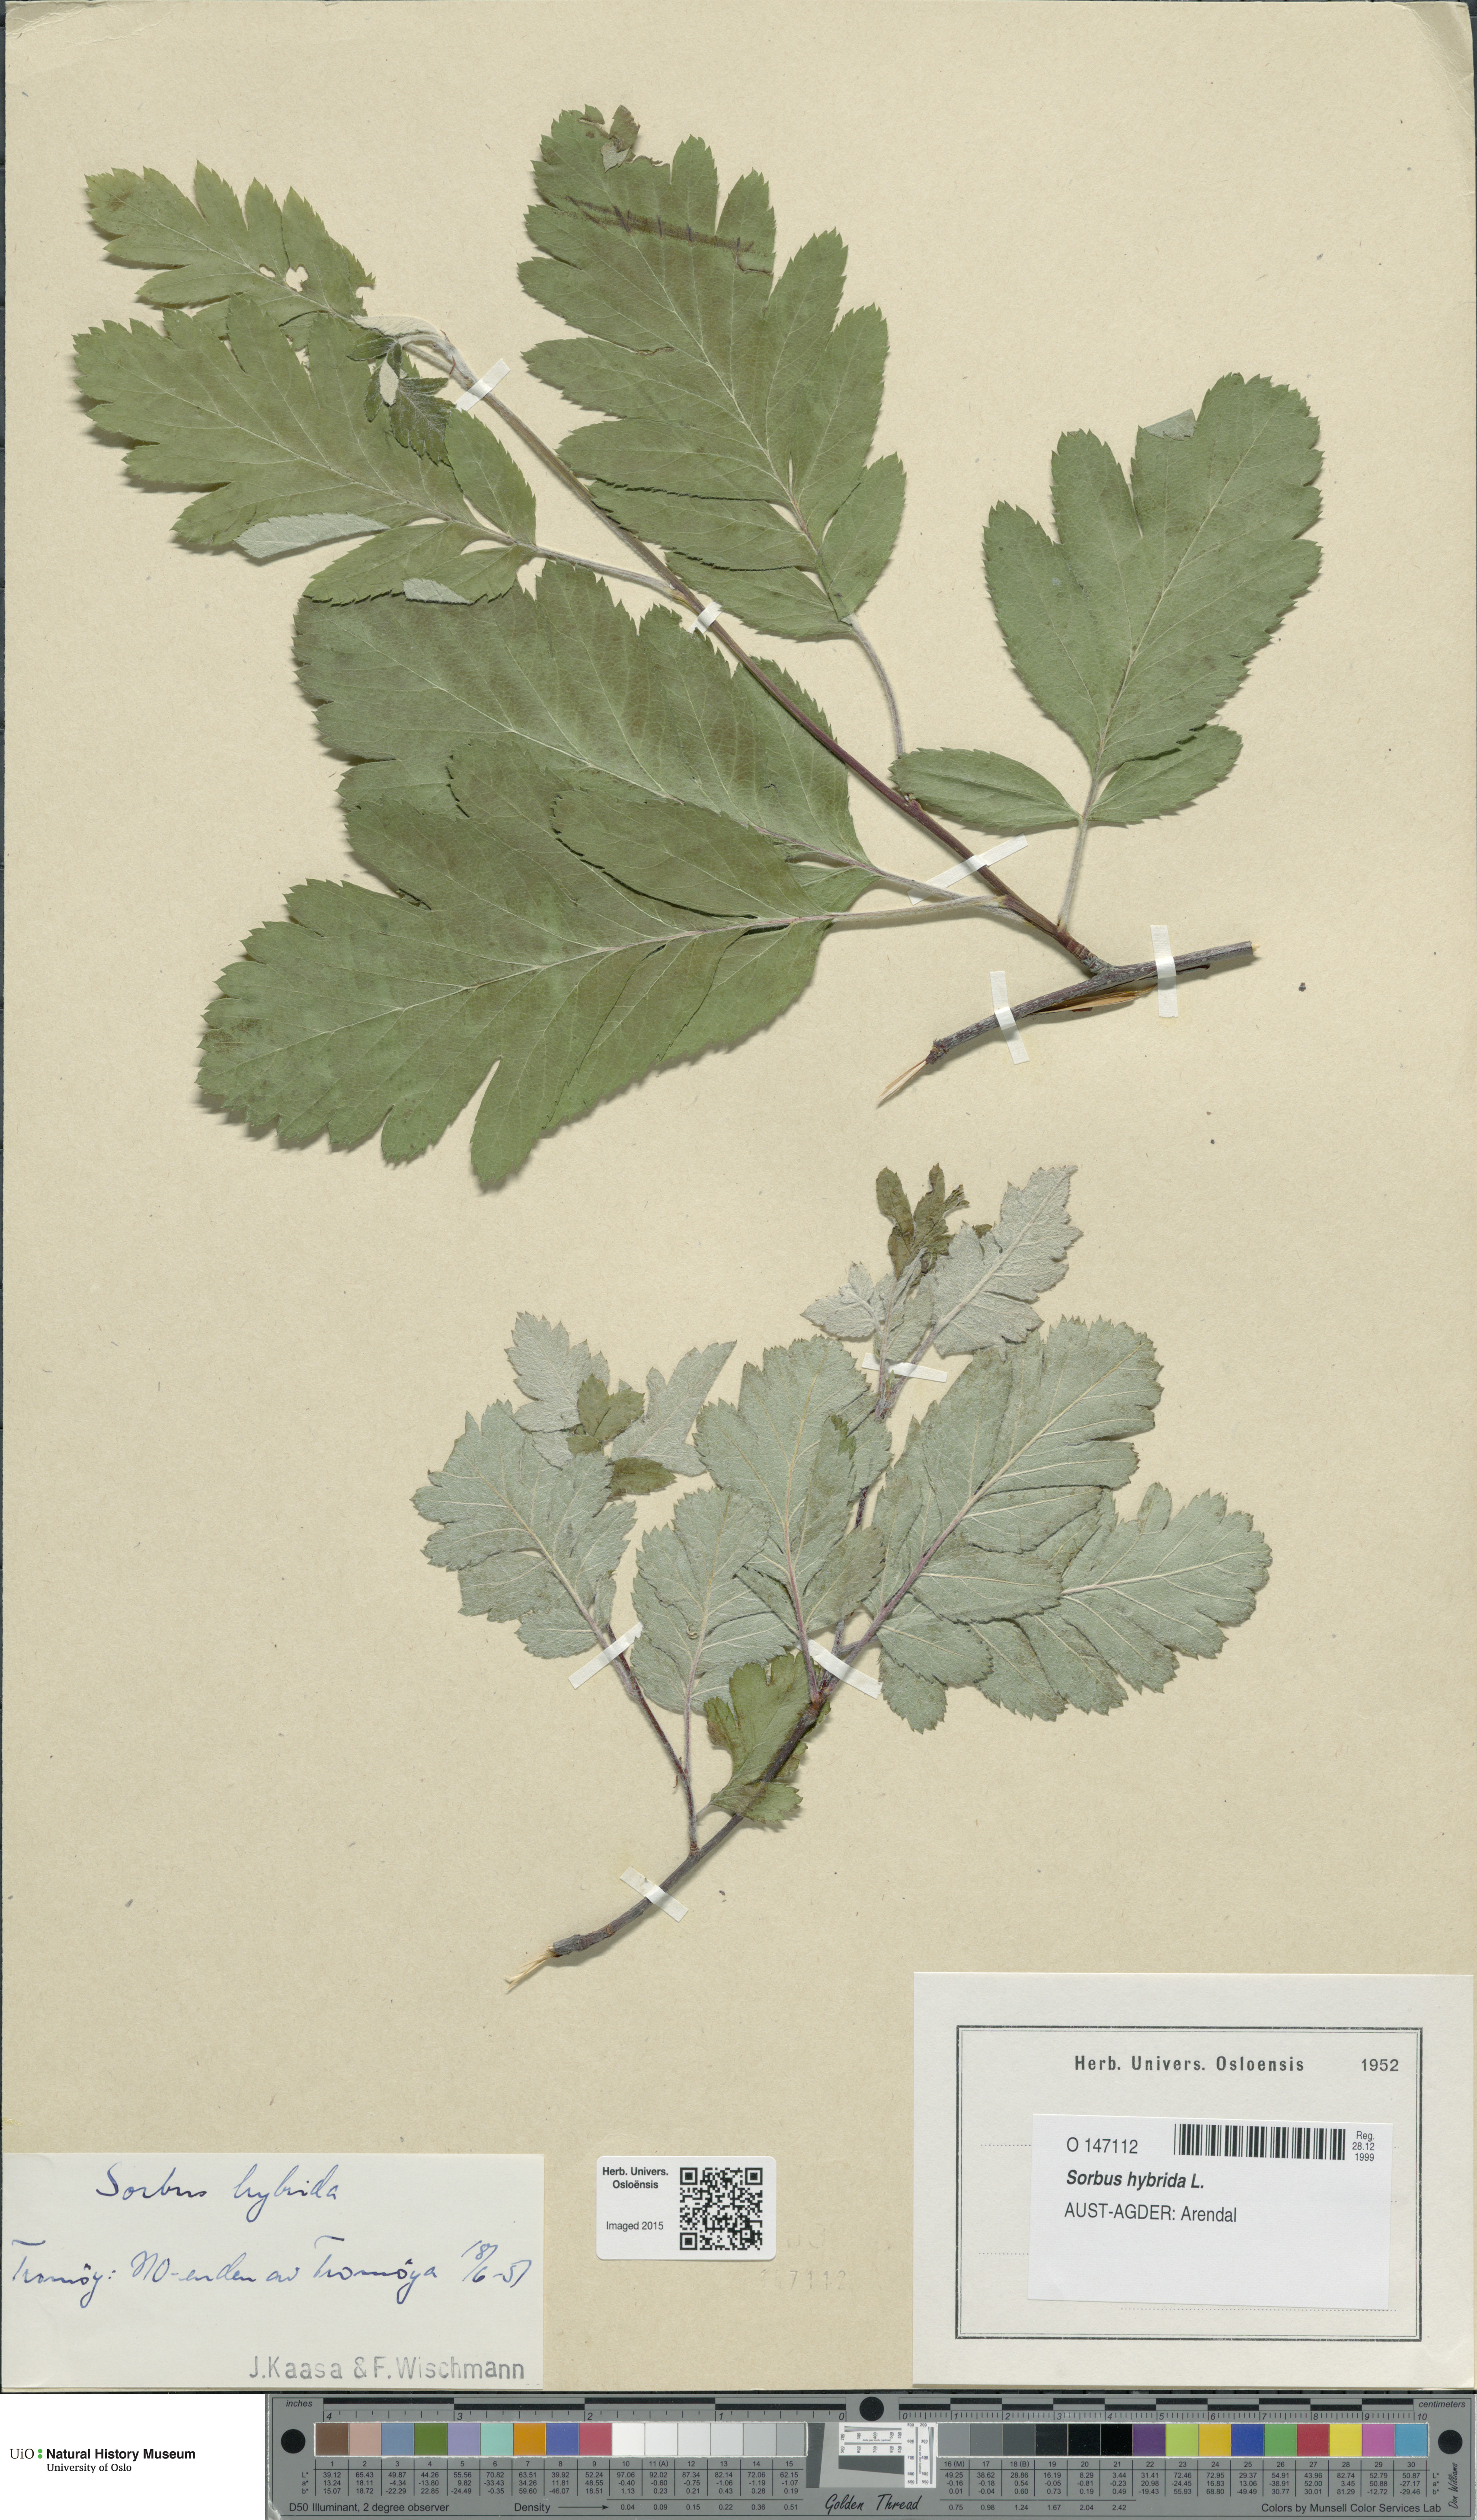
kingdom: Plantae
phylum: Tracheophyta
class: Magnoliopsida
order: Rosales
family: Rosaceae
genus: Hedlundia
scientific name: Hedlundia hybrida
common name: Swedish service-tree
